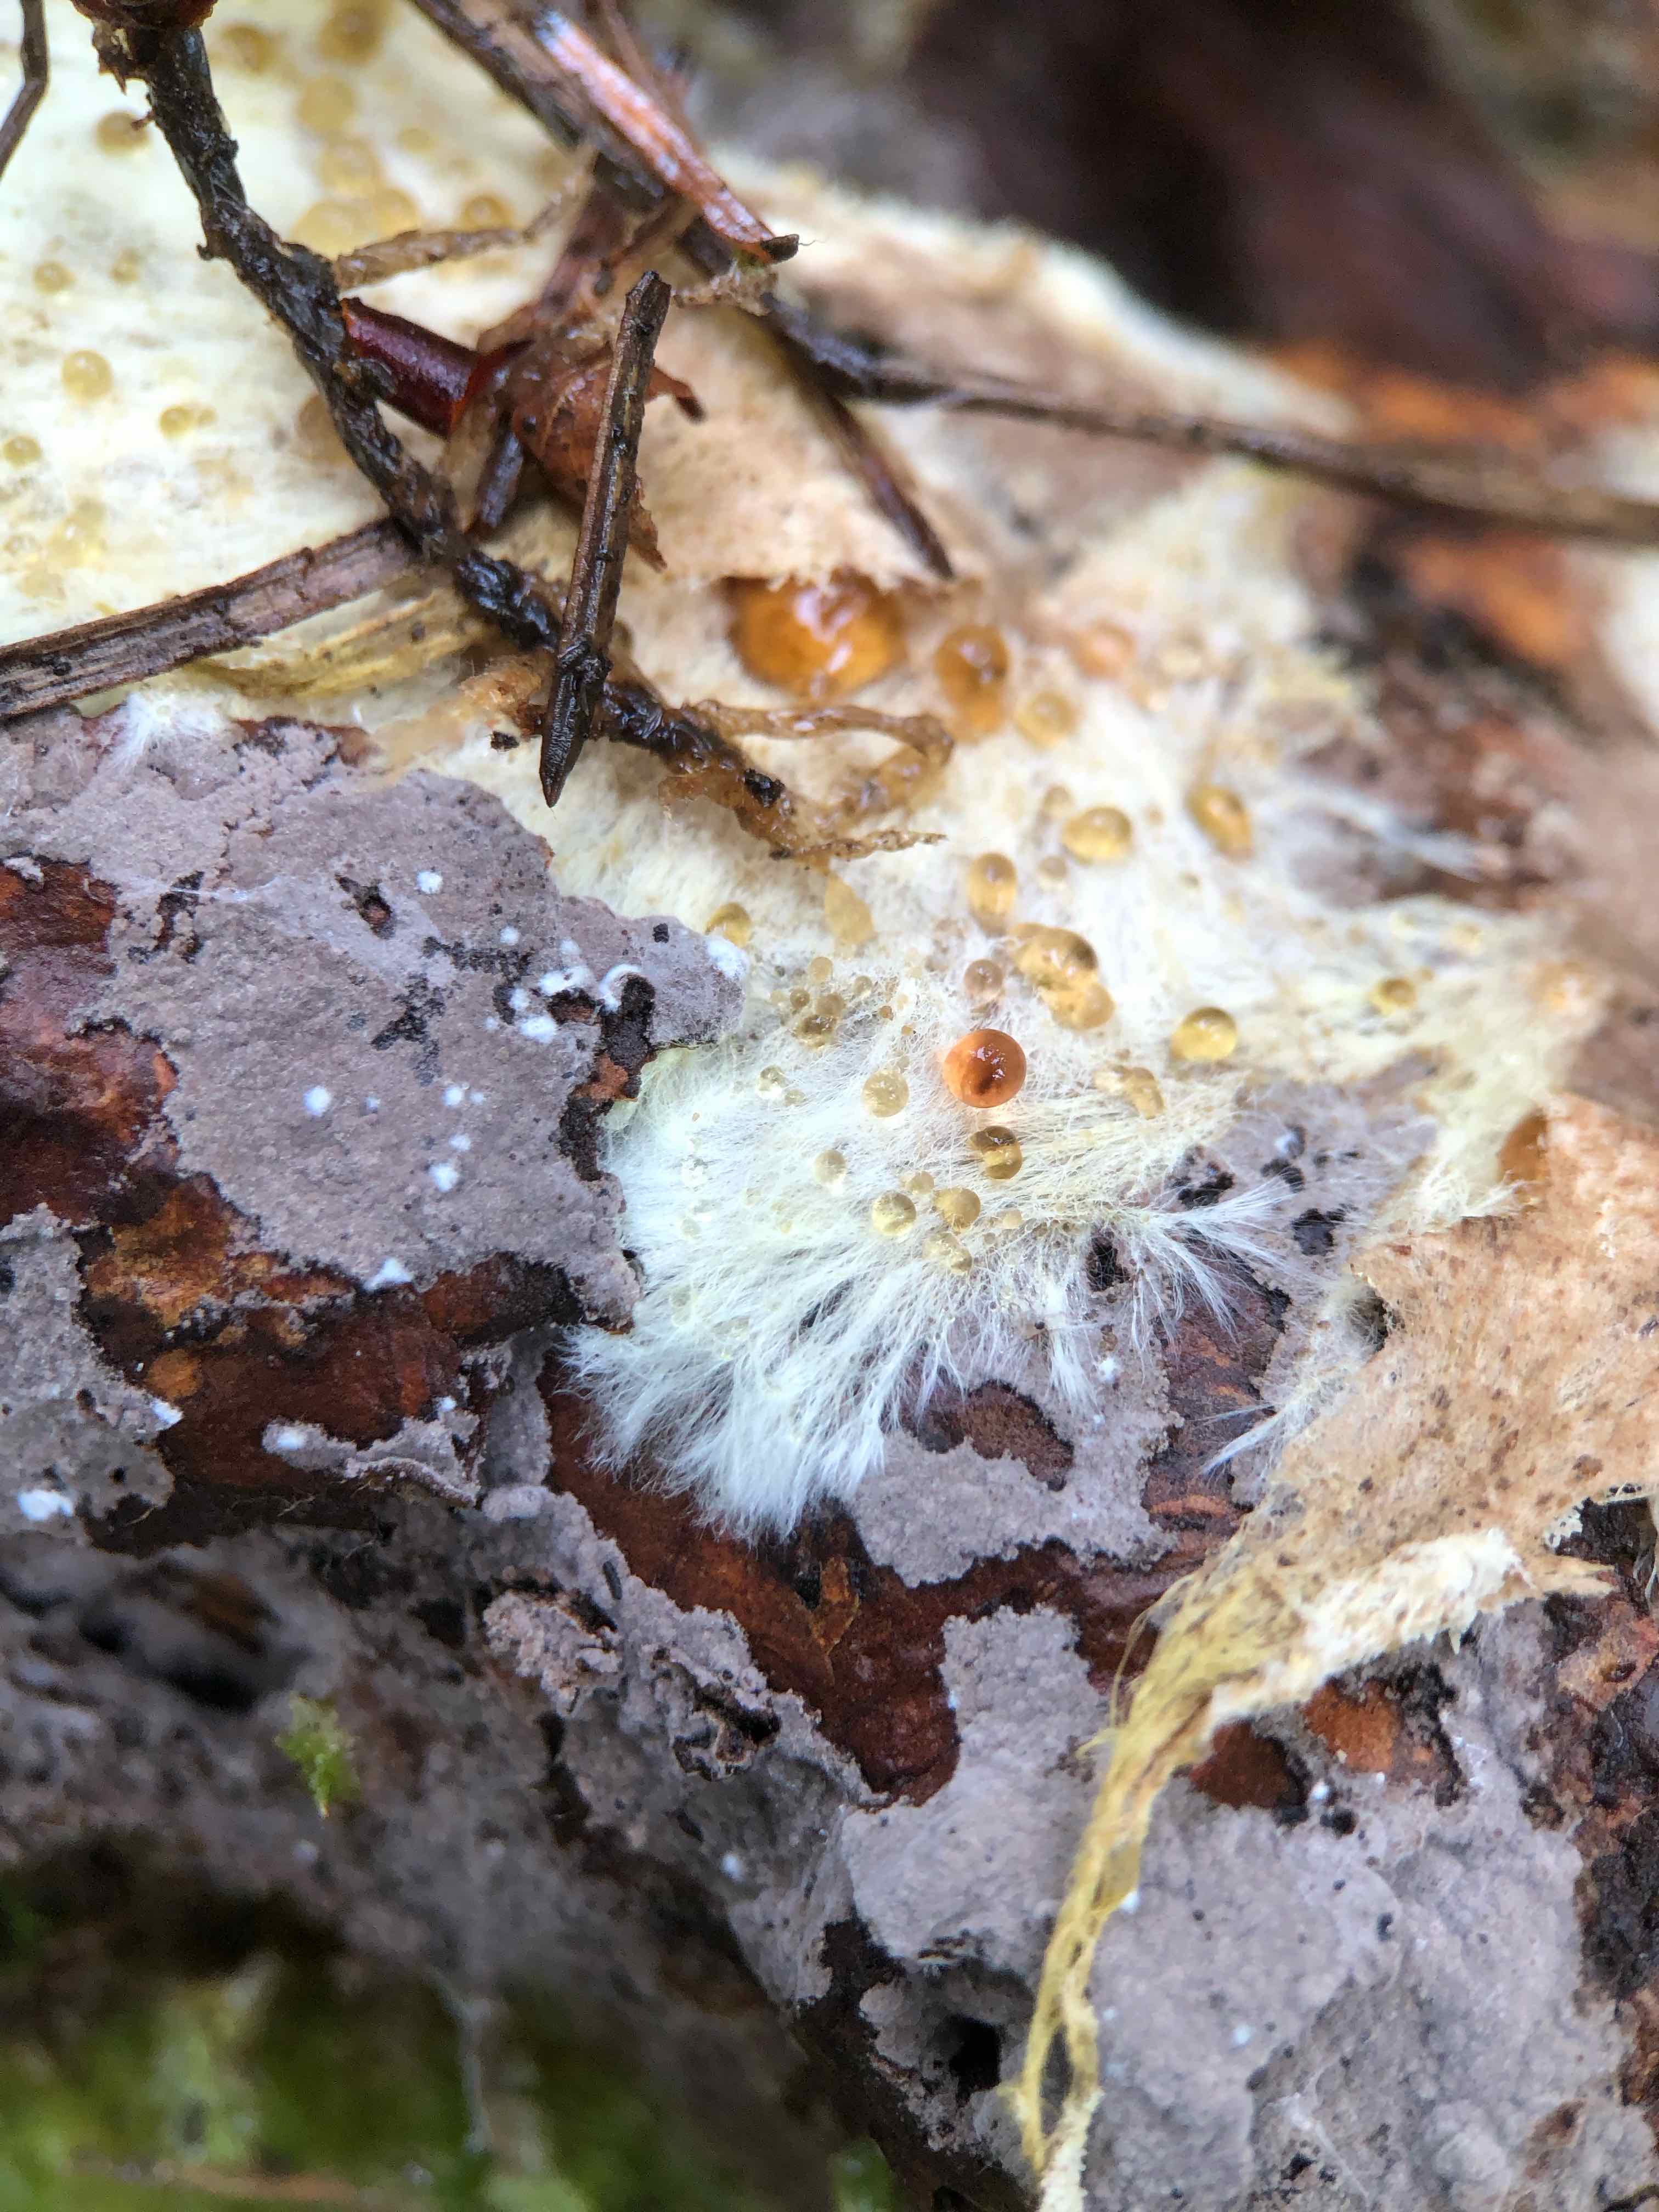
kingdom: Fungi
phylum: Basidiomycota
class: Agaricomycetes
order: Russulales
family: Xenasmataceae
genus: Xenasmatella
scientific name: Xenasmatella vaga
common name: svovl-strenghinde
